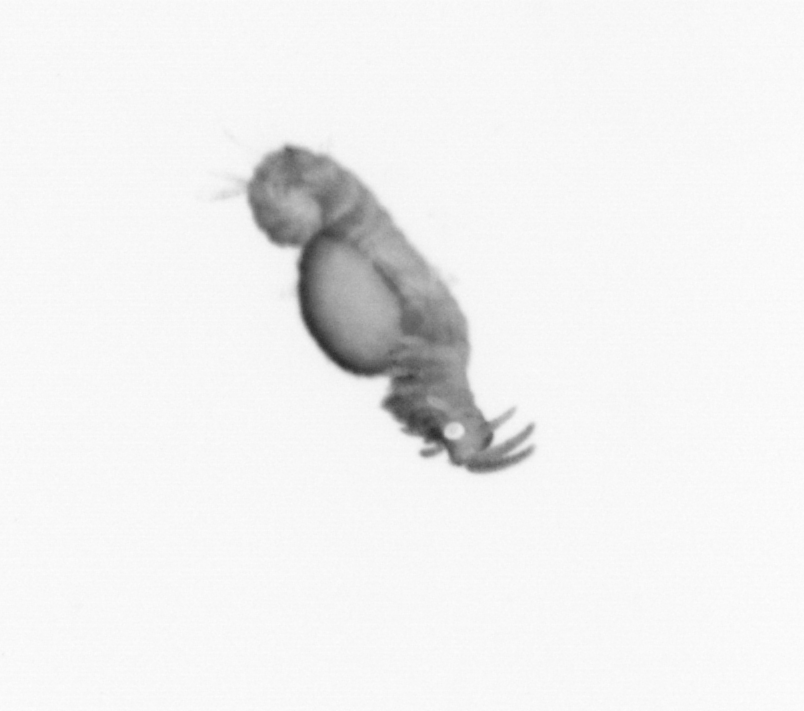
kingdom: Animalia
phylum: Annelida
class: Polychaeta
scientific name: Polychaeta
